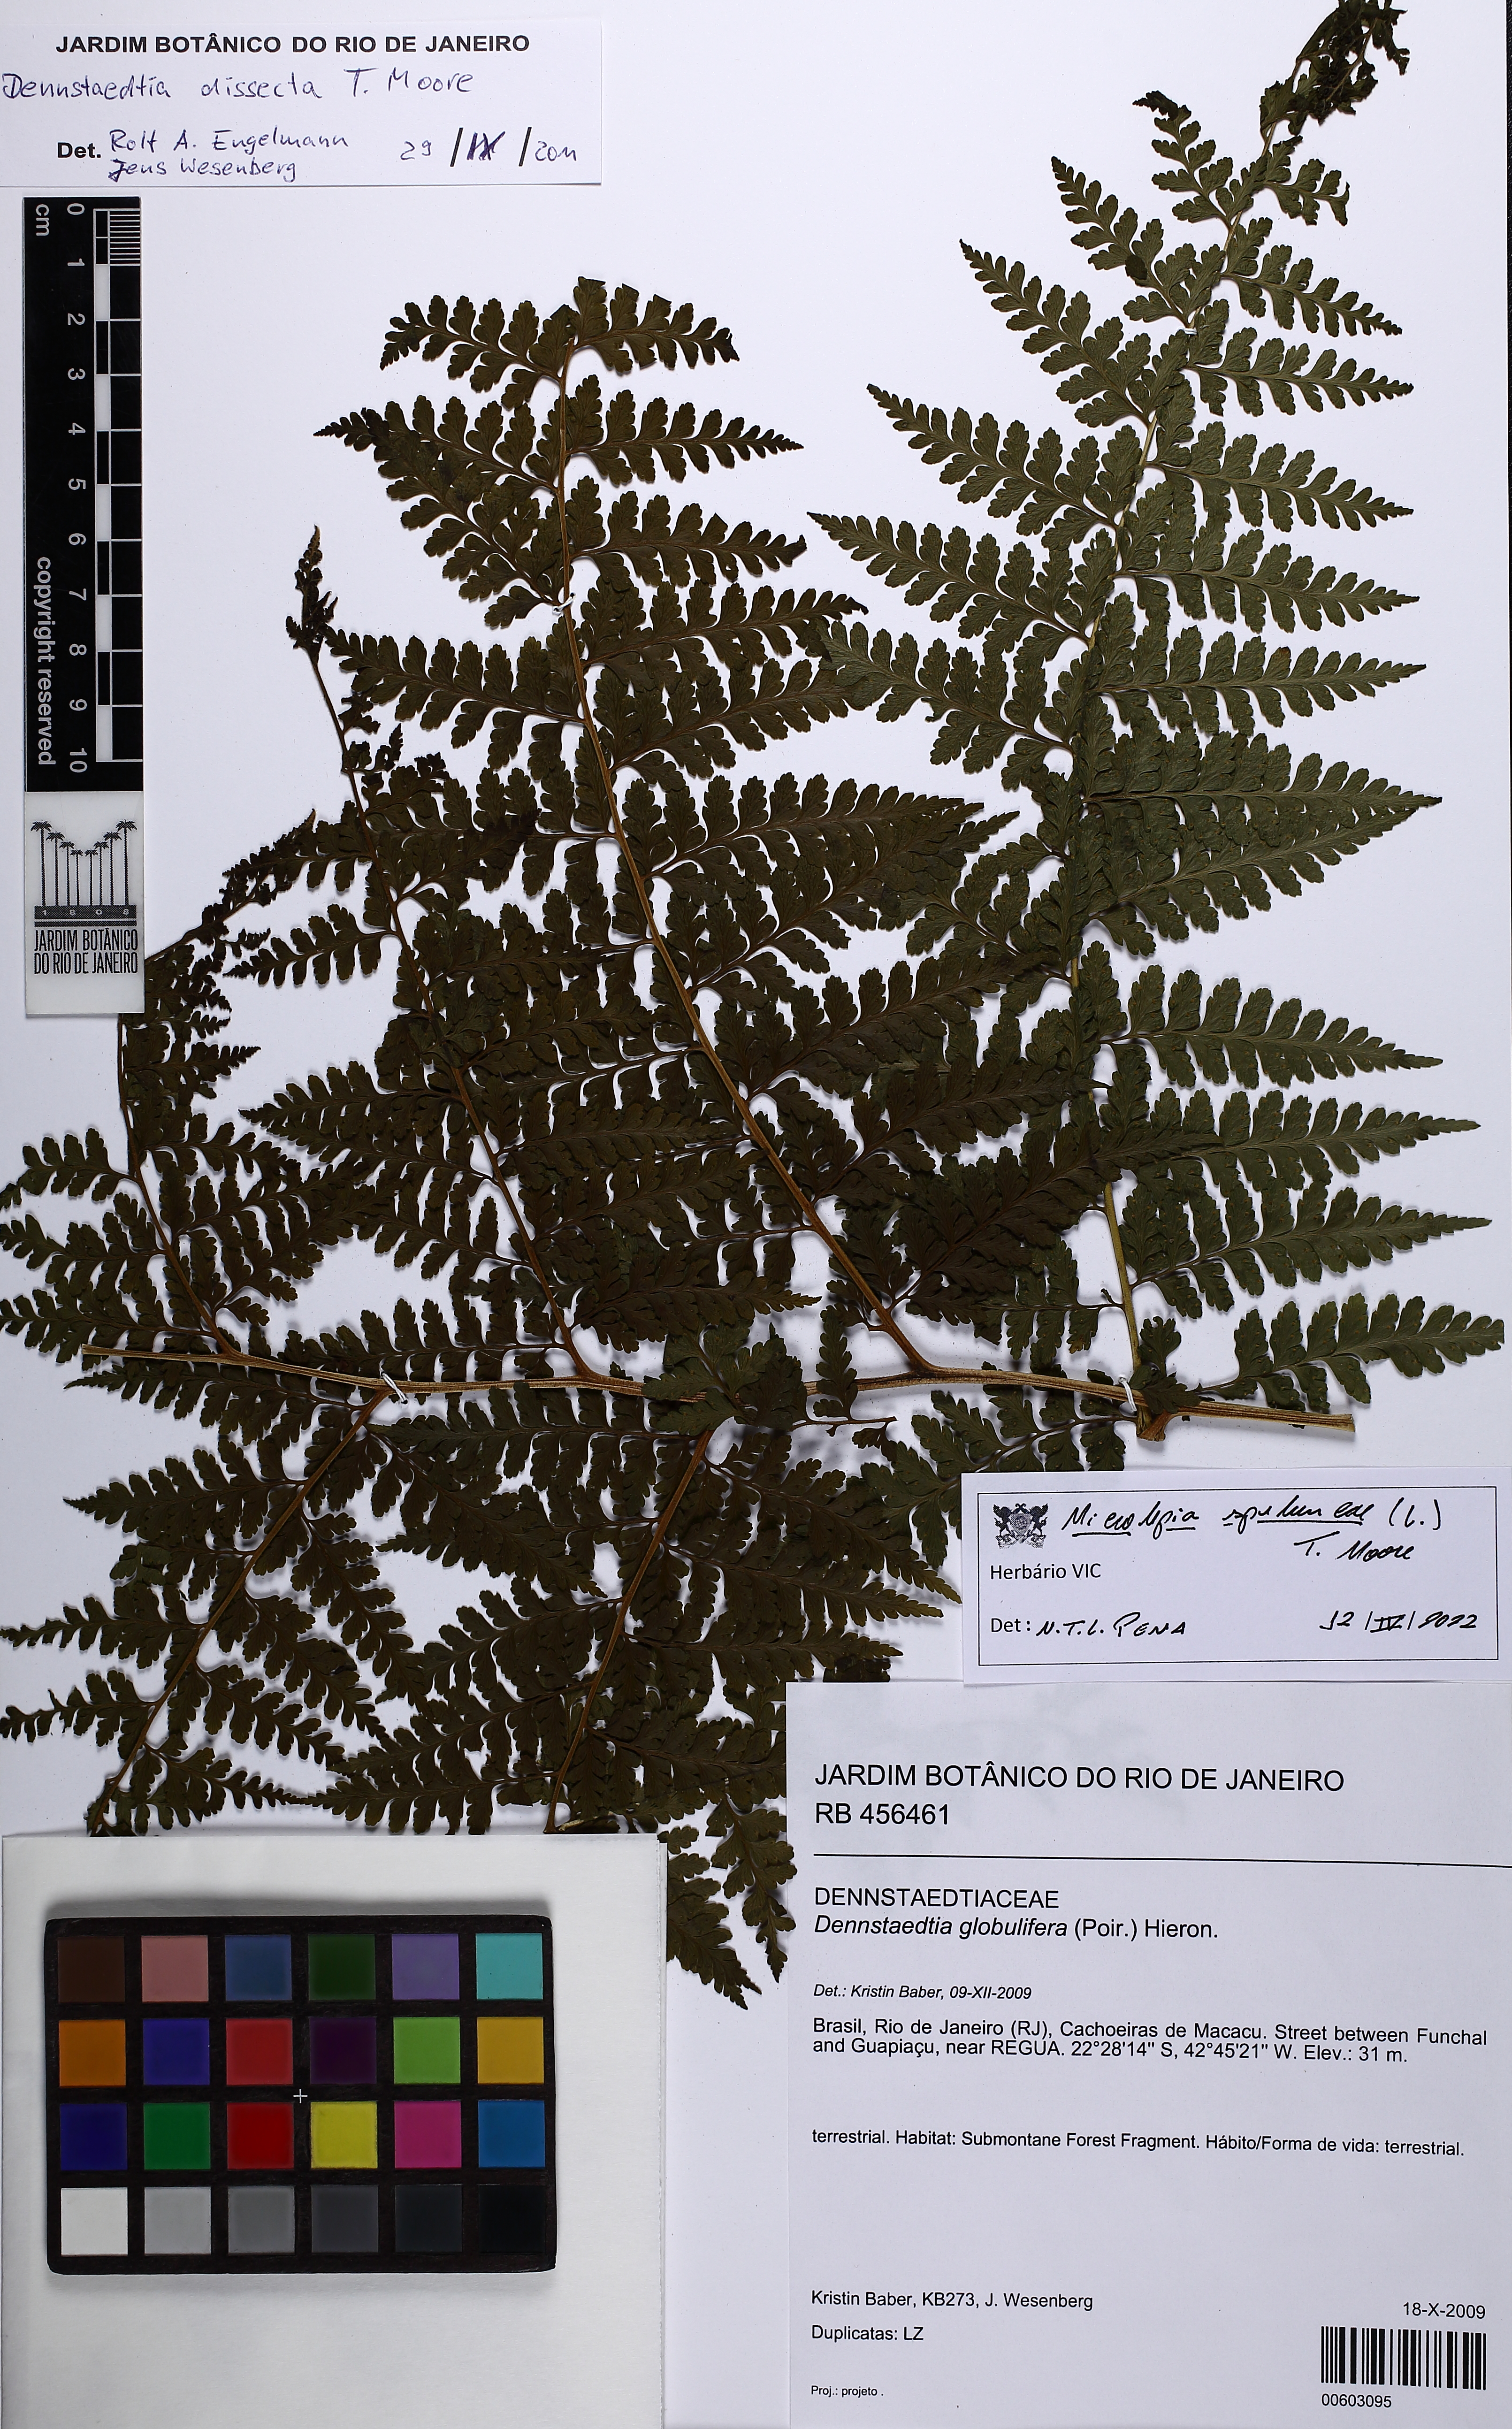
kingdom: Plantae
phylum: Tracheophyta
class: Polypodiopsida
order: Polypodiales
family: Dennstaedtiaceae
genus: Microlepia
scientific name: Microlepia speluncae
